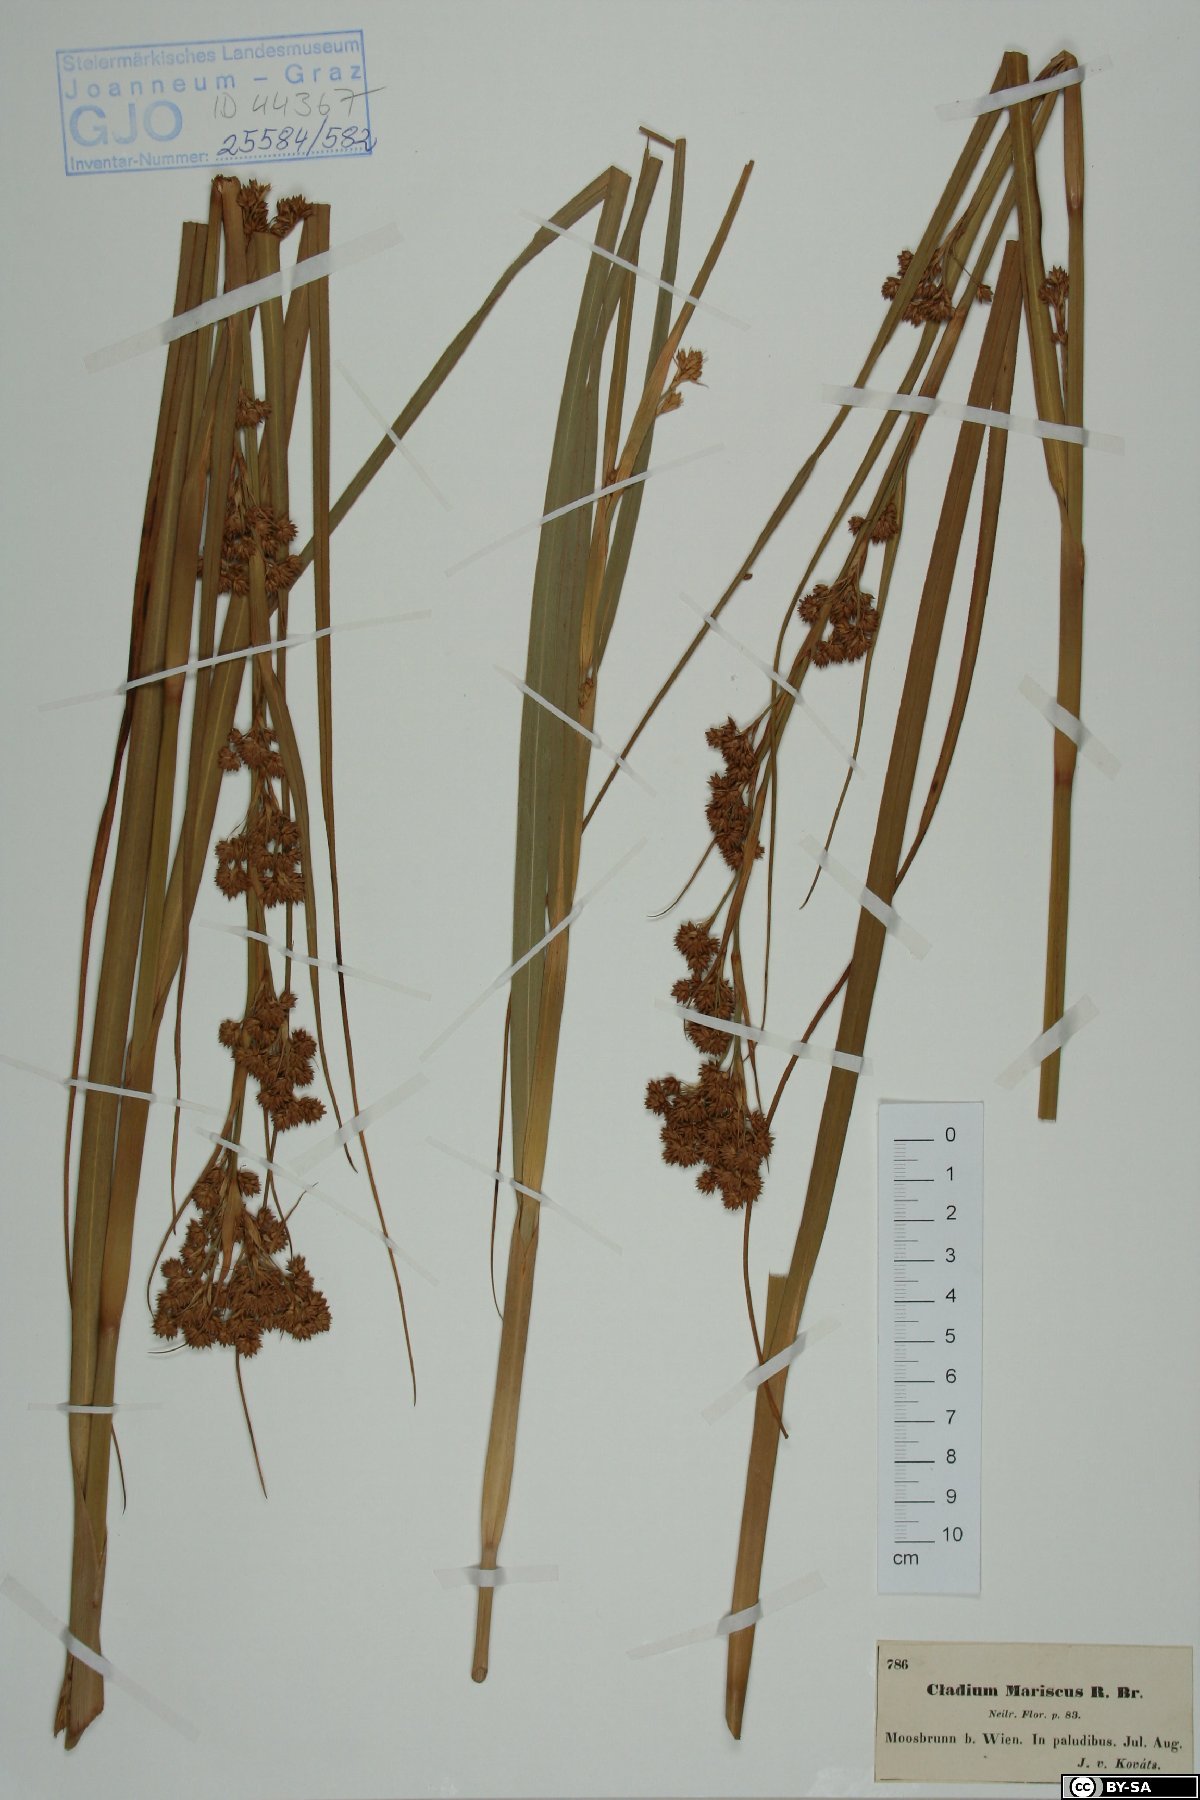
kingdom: Plantae
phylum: Tracheophyta
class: Liliopsida
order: Poales
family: Cyperaceae
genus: Cladium
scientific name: Cladium mariscus
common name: Great fen-sedge
